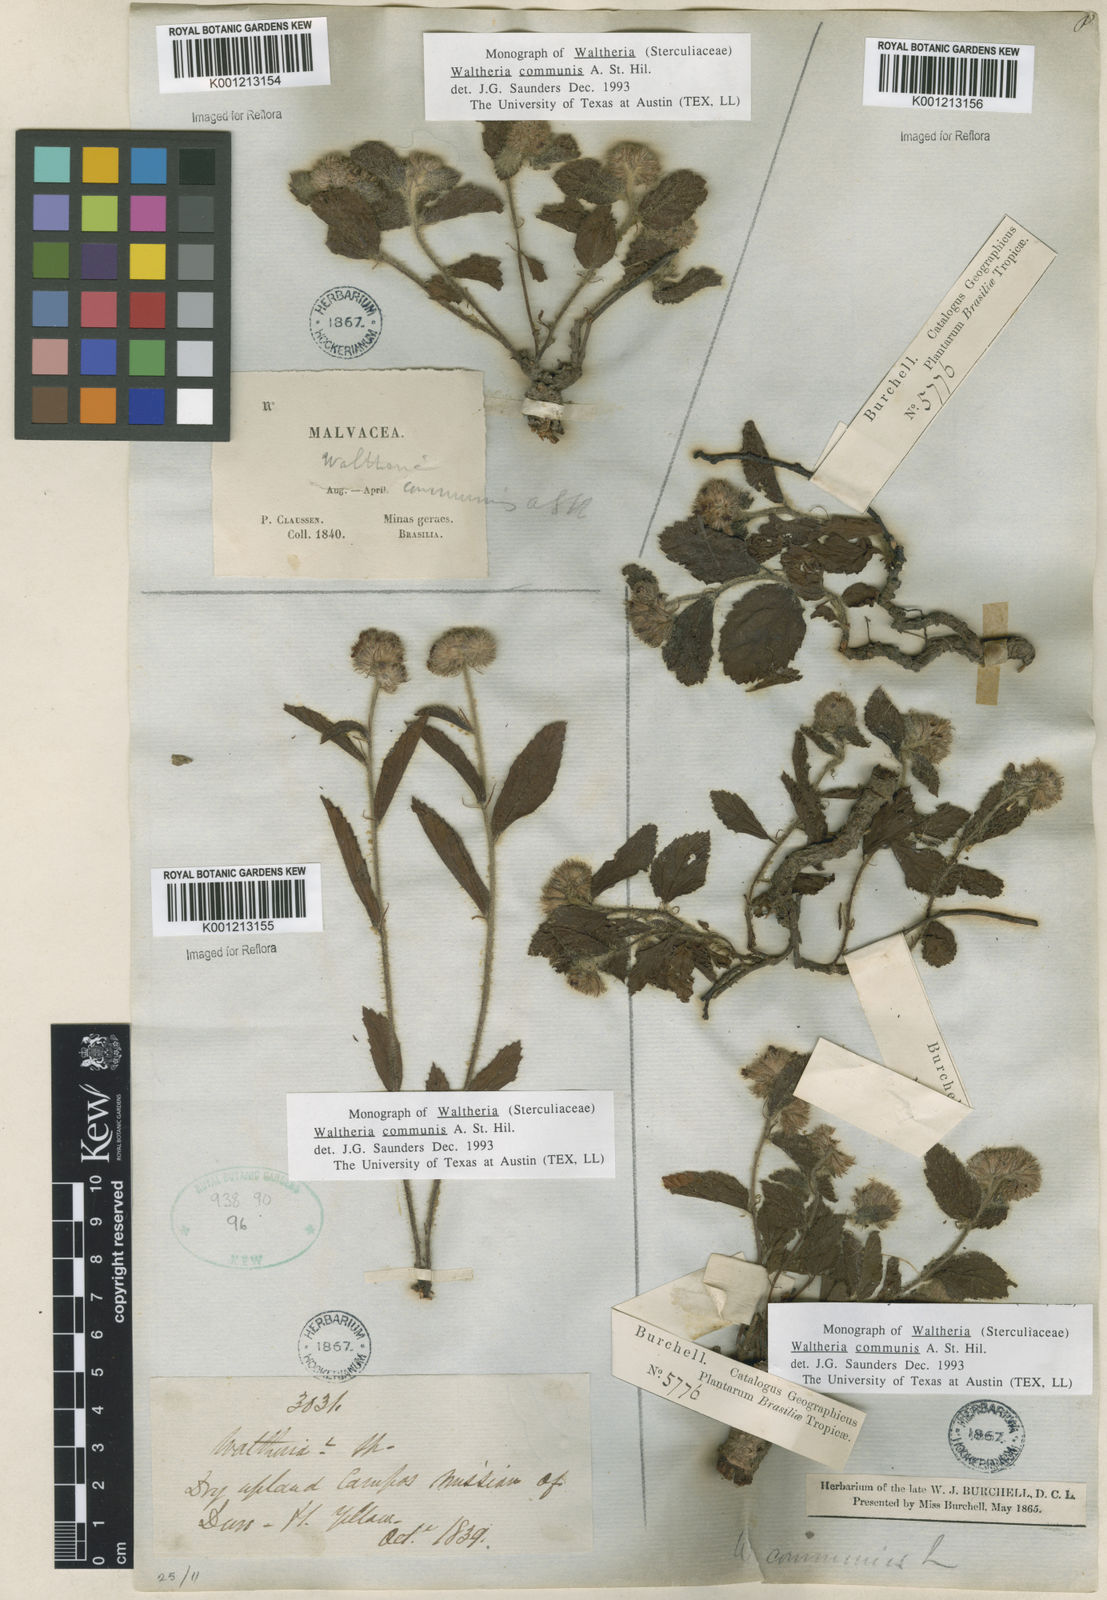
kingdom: Plantae
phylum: Tracheophyta
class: Magnoliopsida
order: Malvales
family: Malvaceae
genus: Waltheria
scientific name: Waltheria communis
